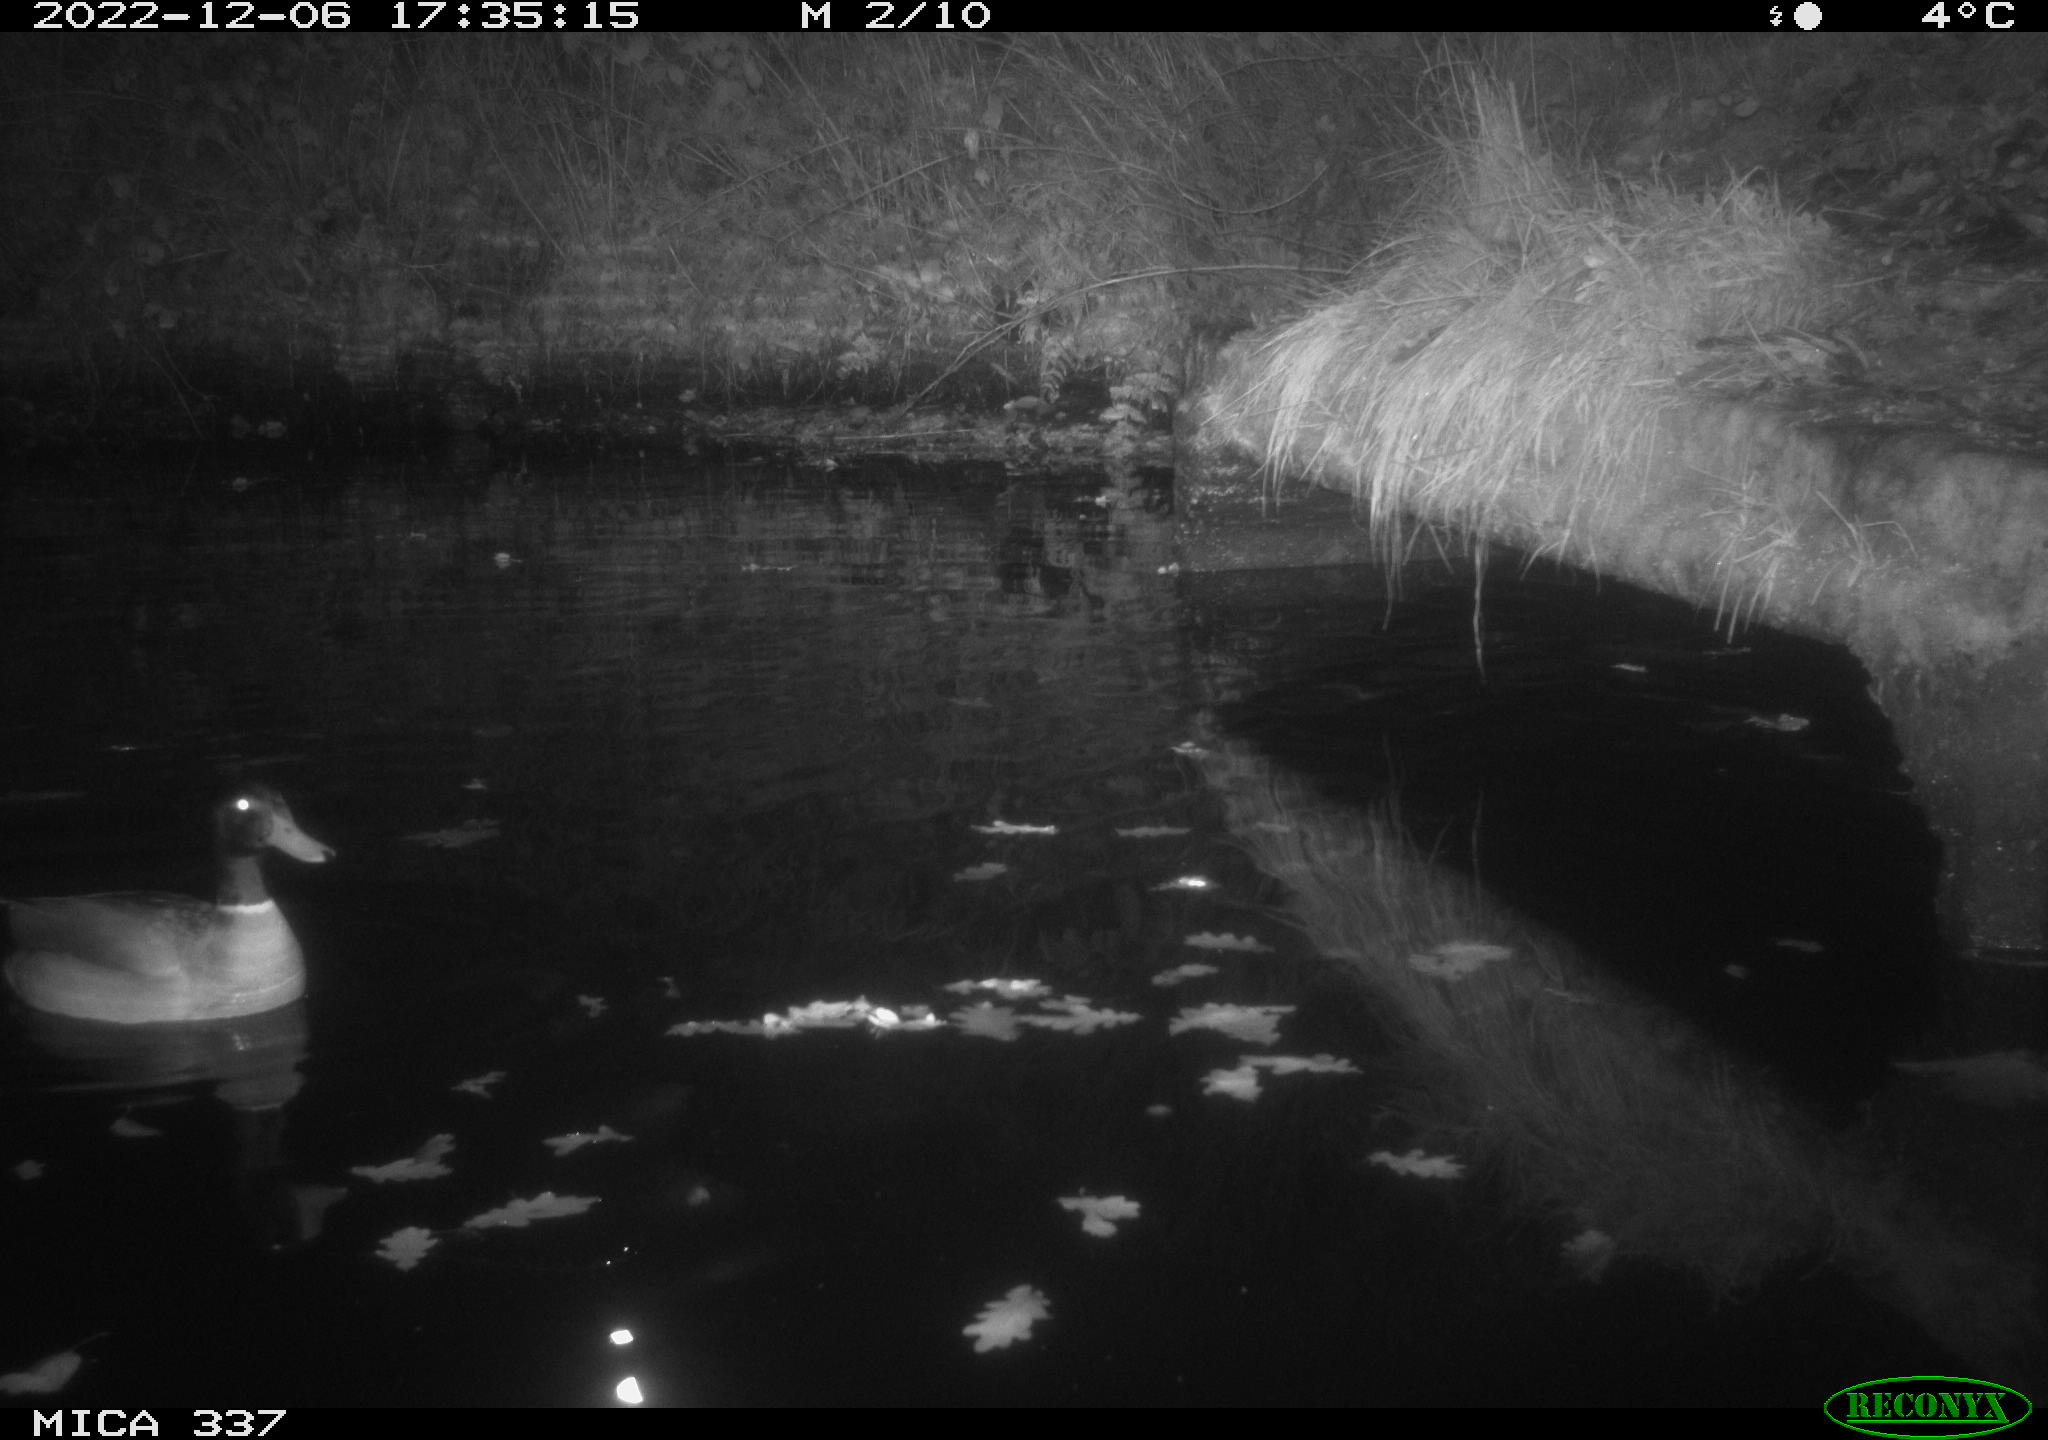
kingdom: Animalia
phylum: Chordata
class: Aves
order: Anseriformes
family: Anatidae
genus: Anas
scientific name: Anas
